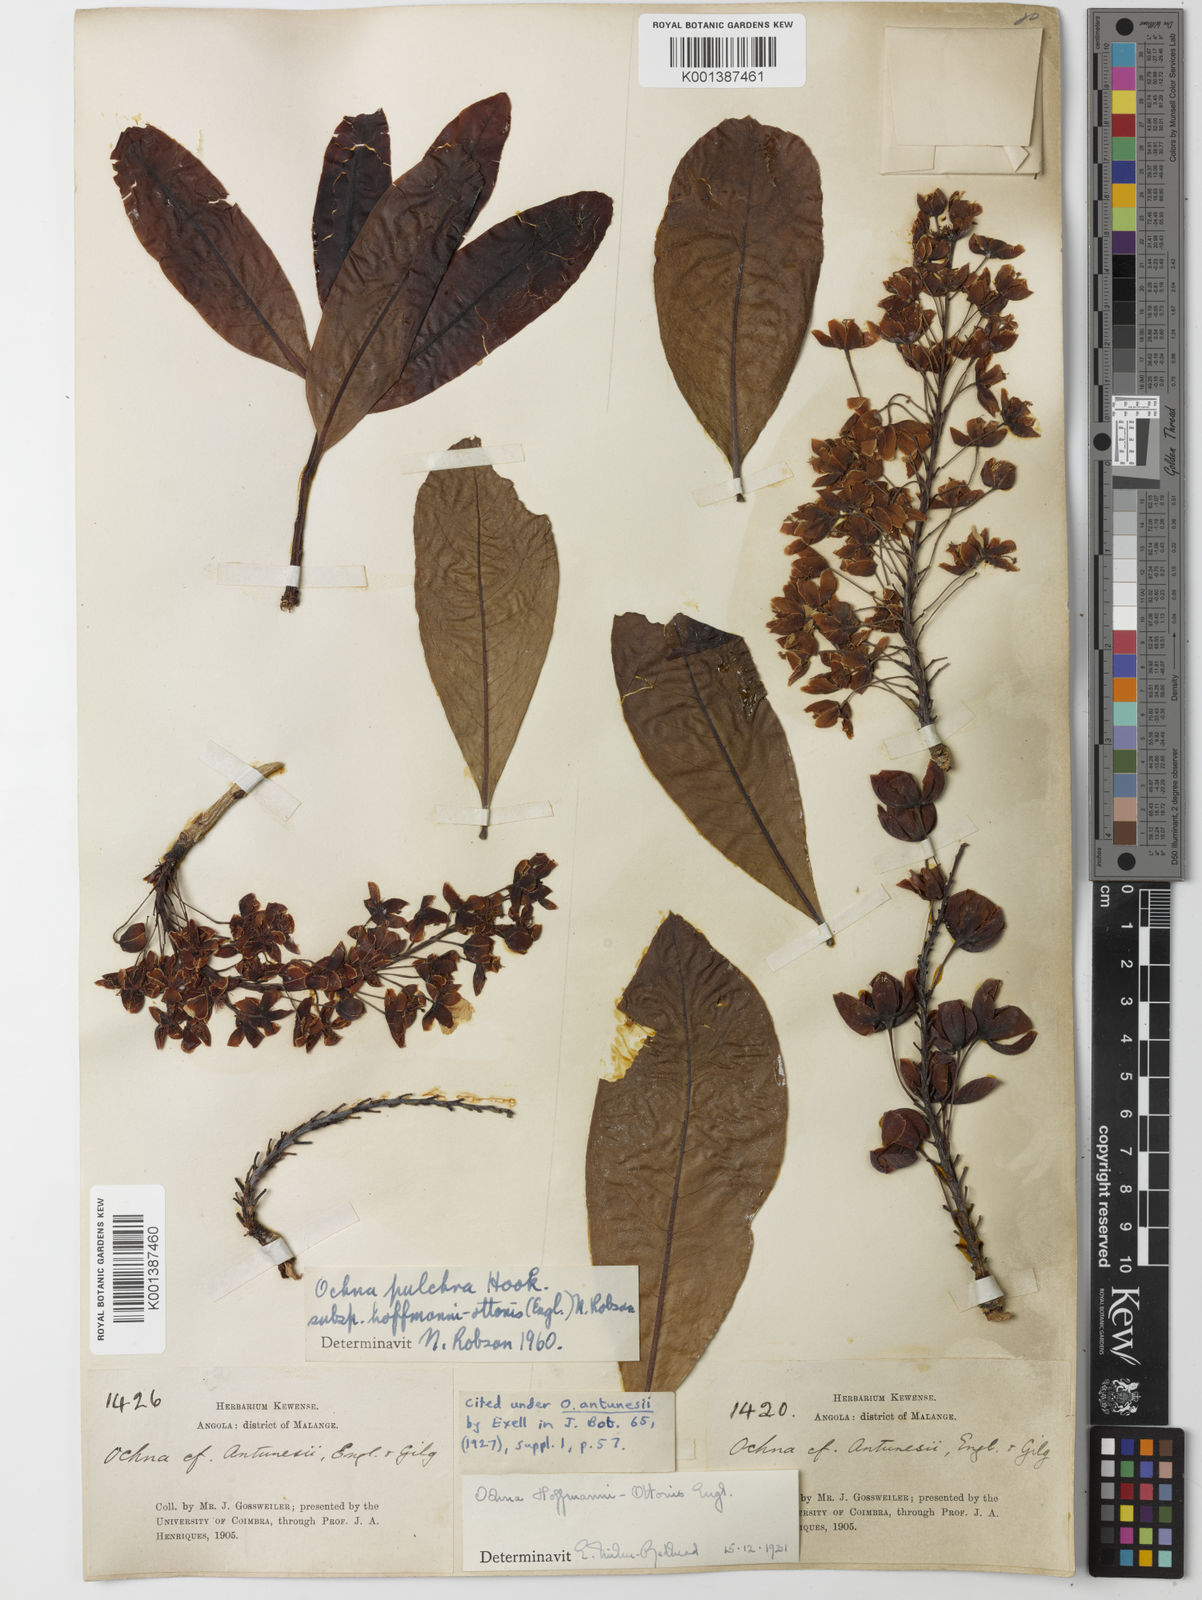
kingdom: Plantae
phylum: Tracheophyta
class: Magnoliopsida
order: Malpighiales
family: Ochnaceae
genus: Ochna
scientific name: Ochna pulchra
